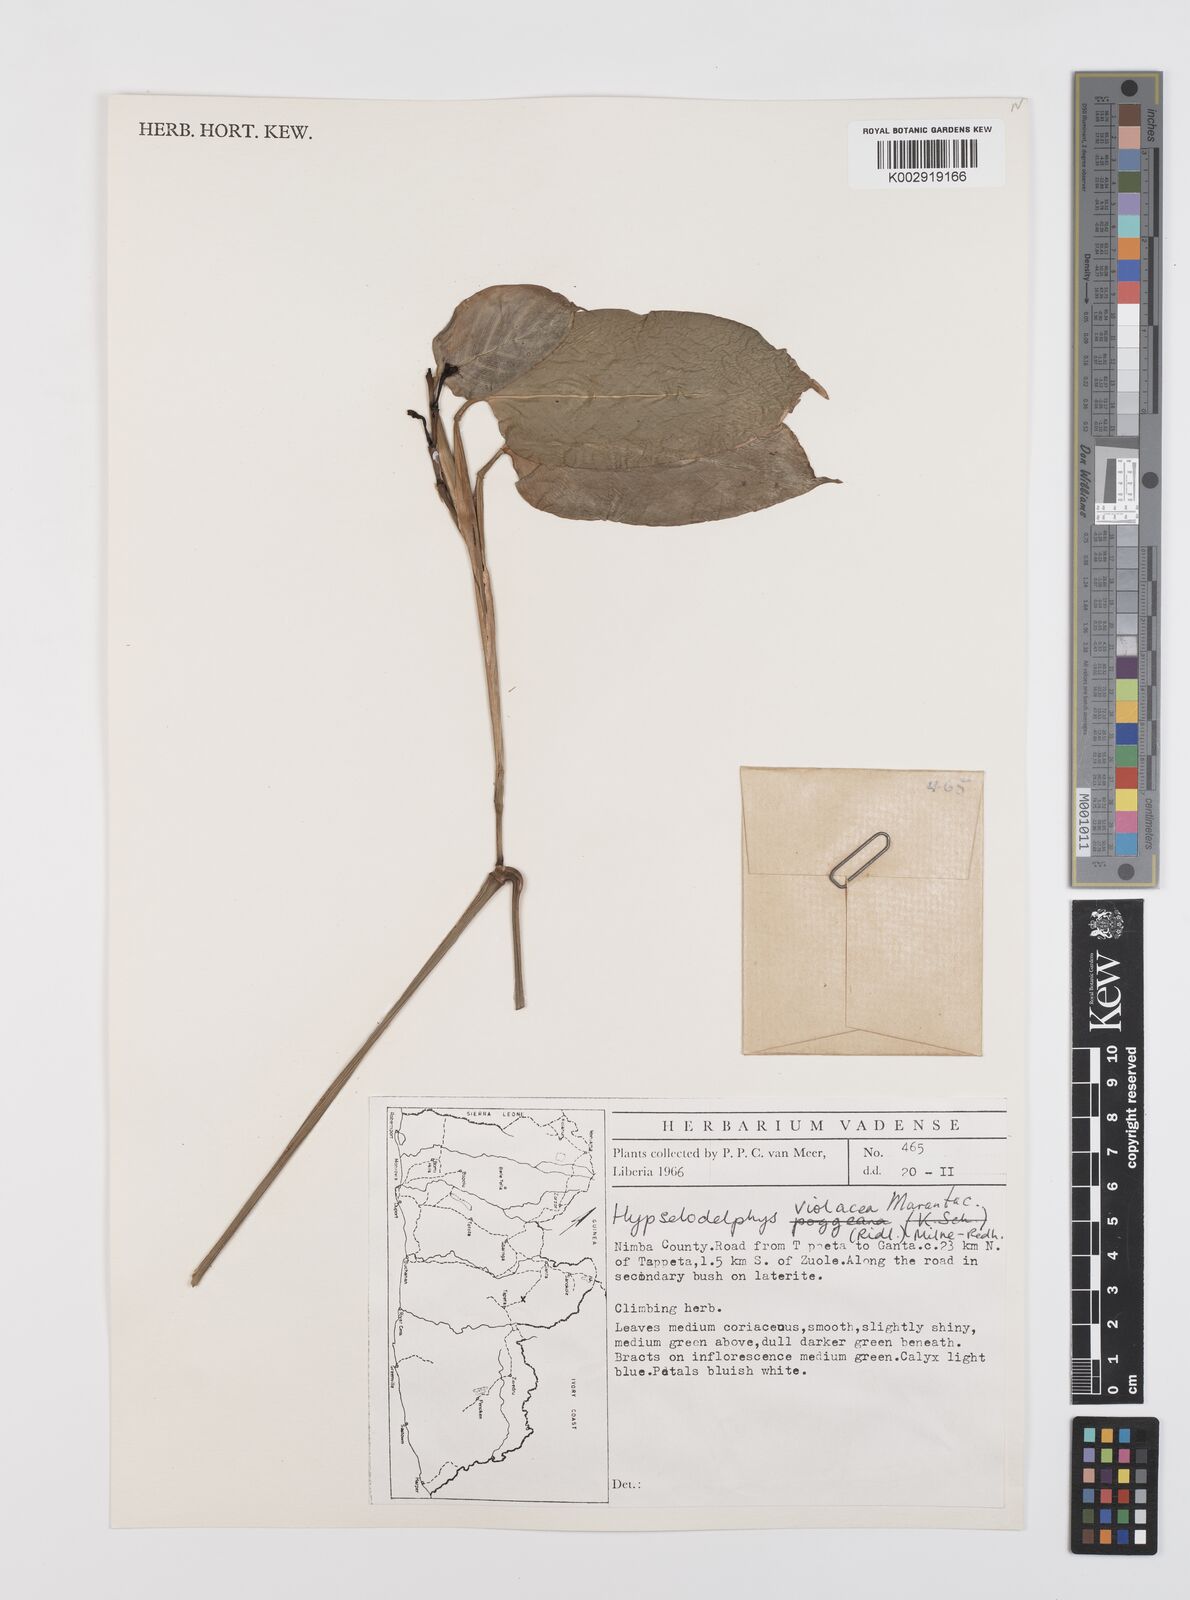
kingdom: Plantae
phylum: Tracheophyta
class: Liliopsida
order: Zingiberales
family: Marantaceae
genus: Hypselodelphys
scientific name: Hypselodelphys violacea
